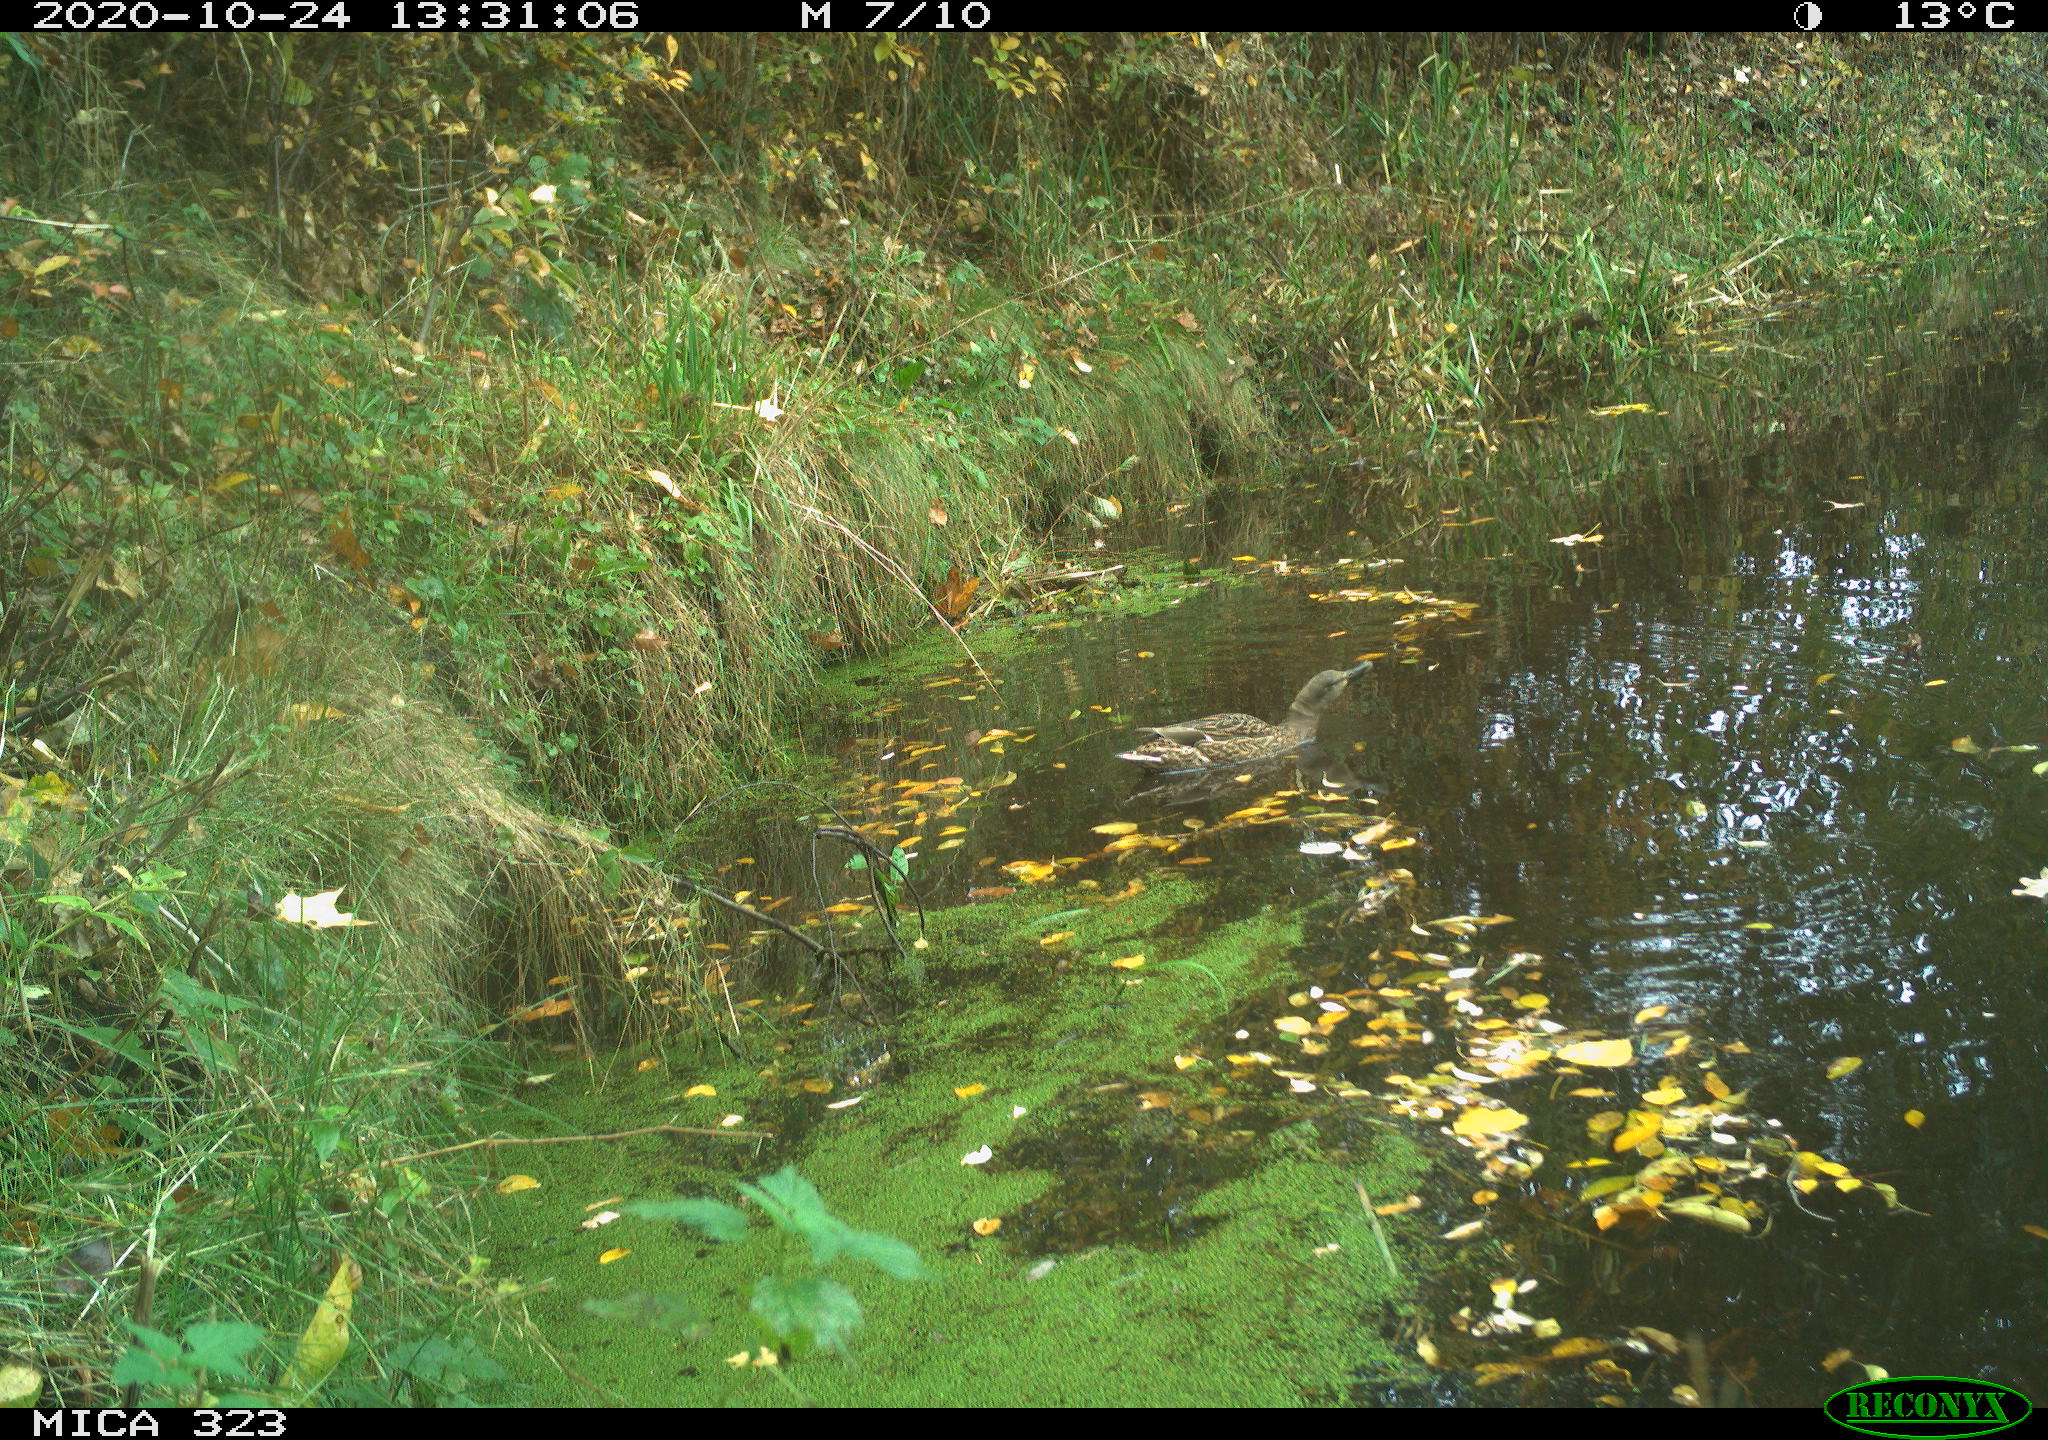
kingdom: Animalia
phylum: Chordata
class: Aves
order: Anseriformes
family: Anatidae
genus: Anas
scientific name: Anas platyrhynchos
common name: Mallard
